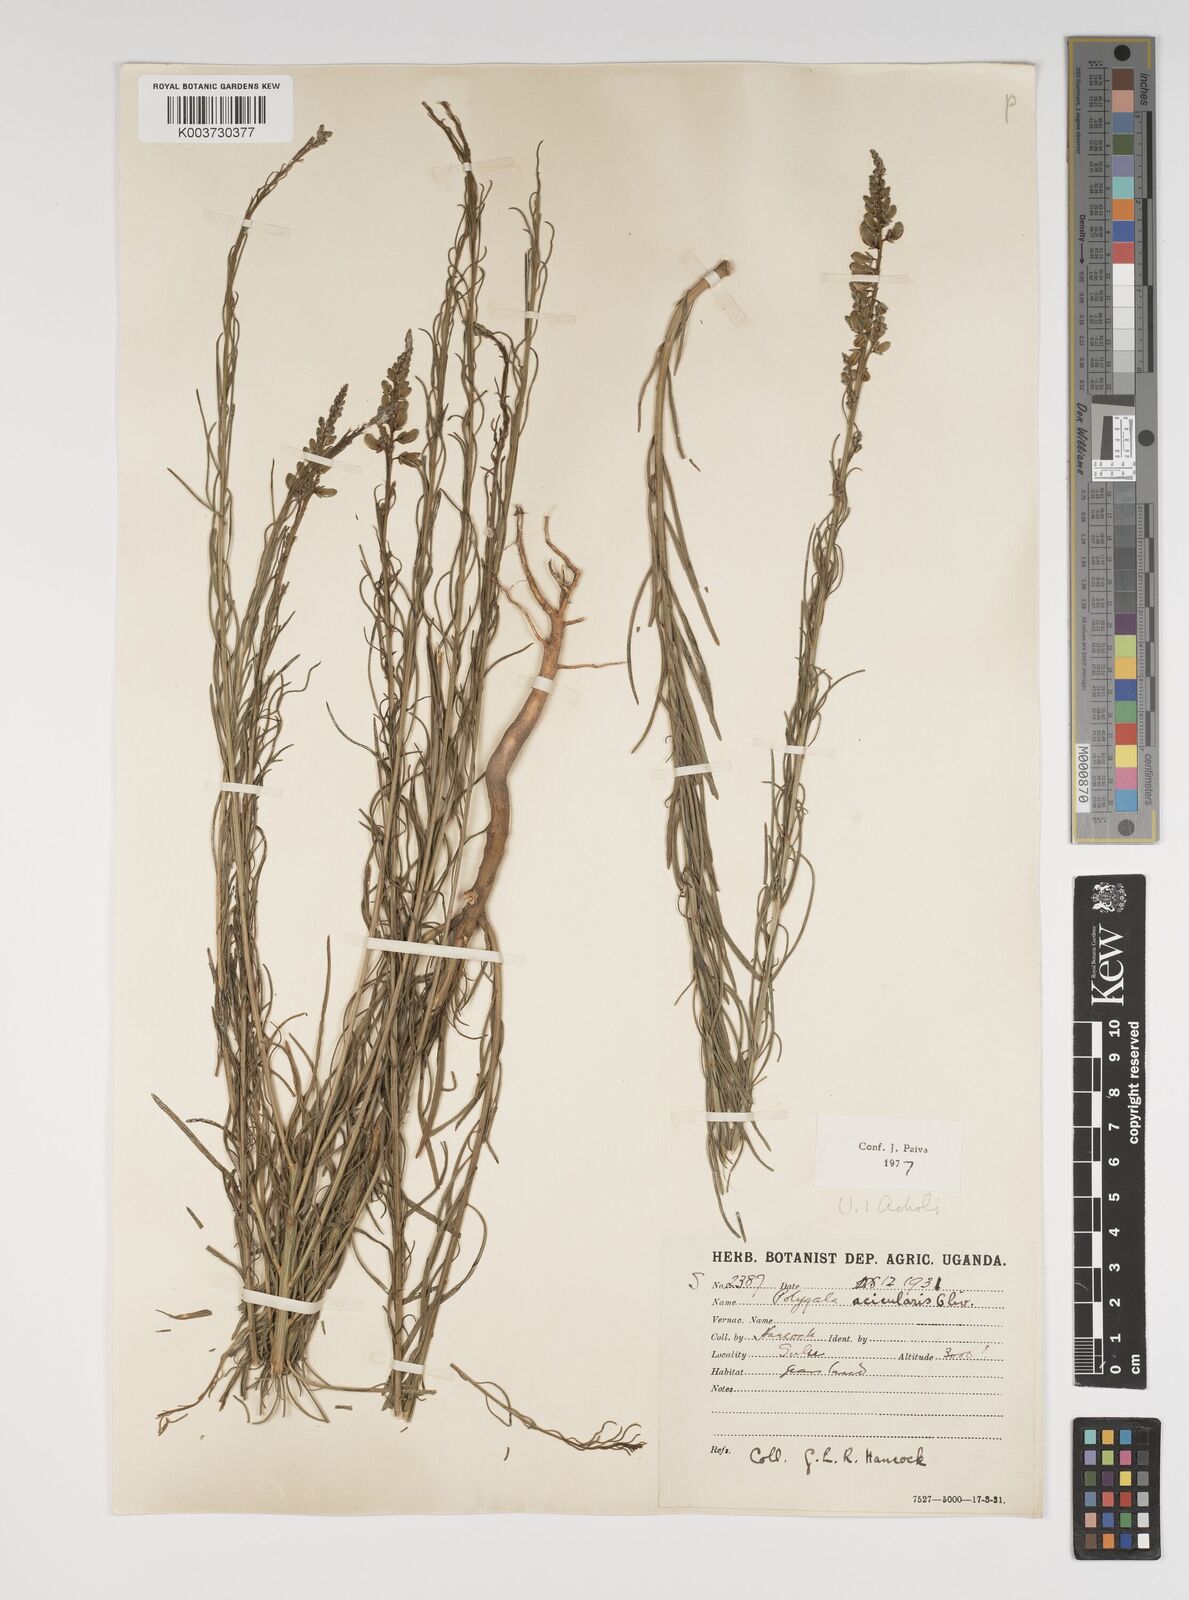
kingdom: Plantae
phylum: Tracheophyta
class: Magnoliopsida
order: Fabales
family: Polygalaceae
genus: Polygala
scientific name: Polygala acicularis
